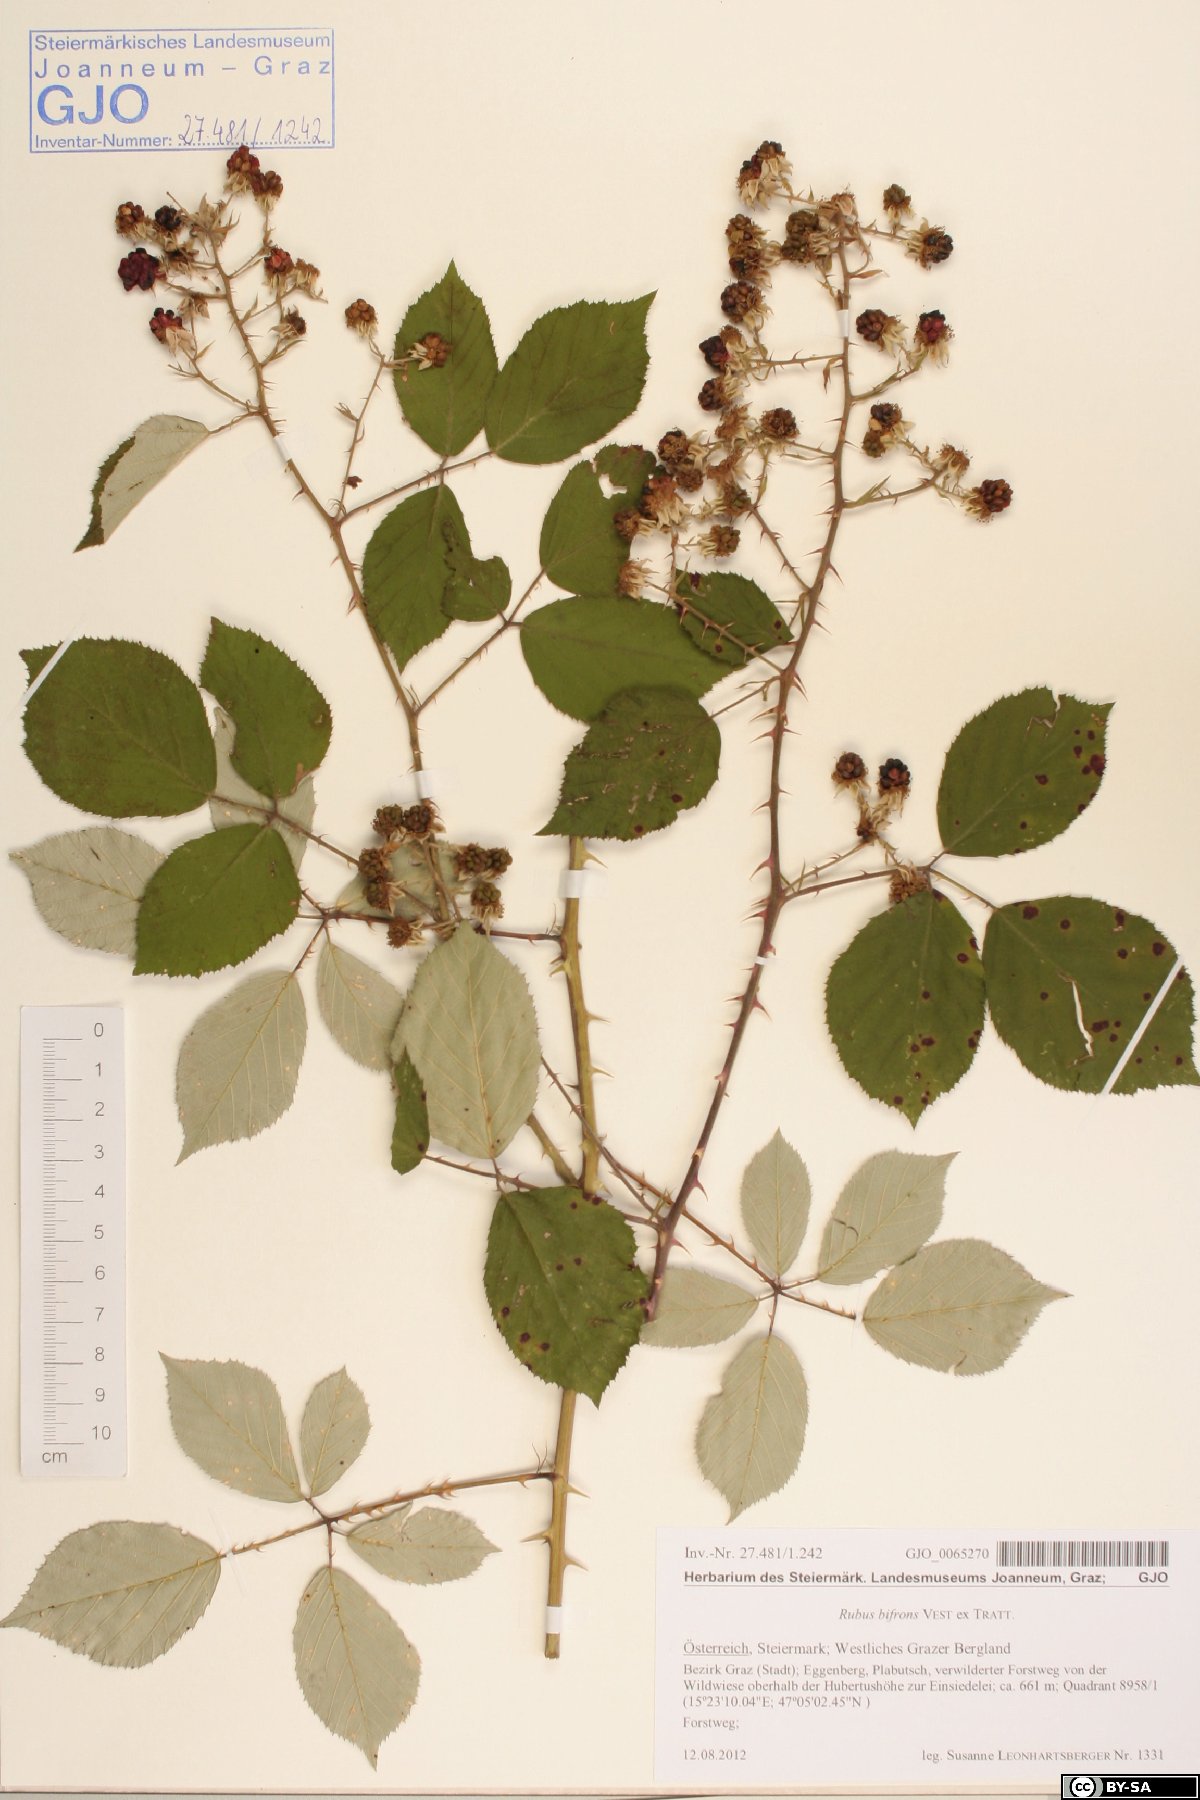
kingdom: Plantae
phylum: Tracheophyta
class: Magnoliopsida
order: Rosales
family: Rosaceae
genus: Rubus
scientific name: Rubus bifrons
